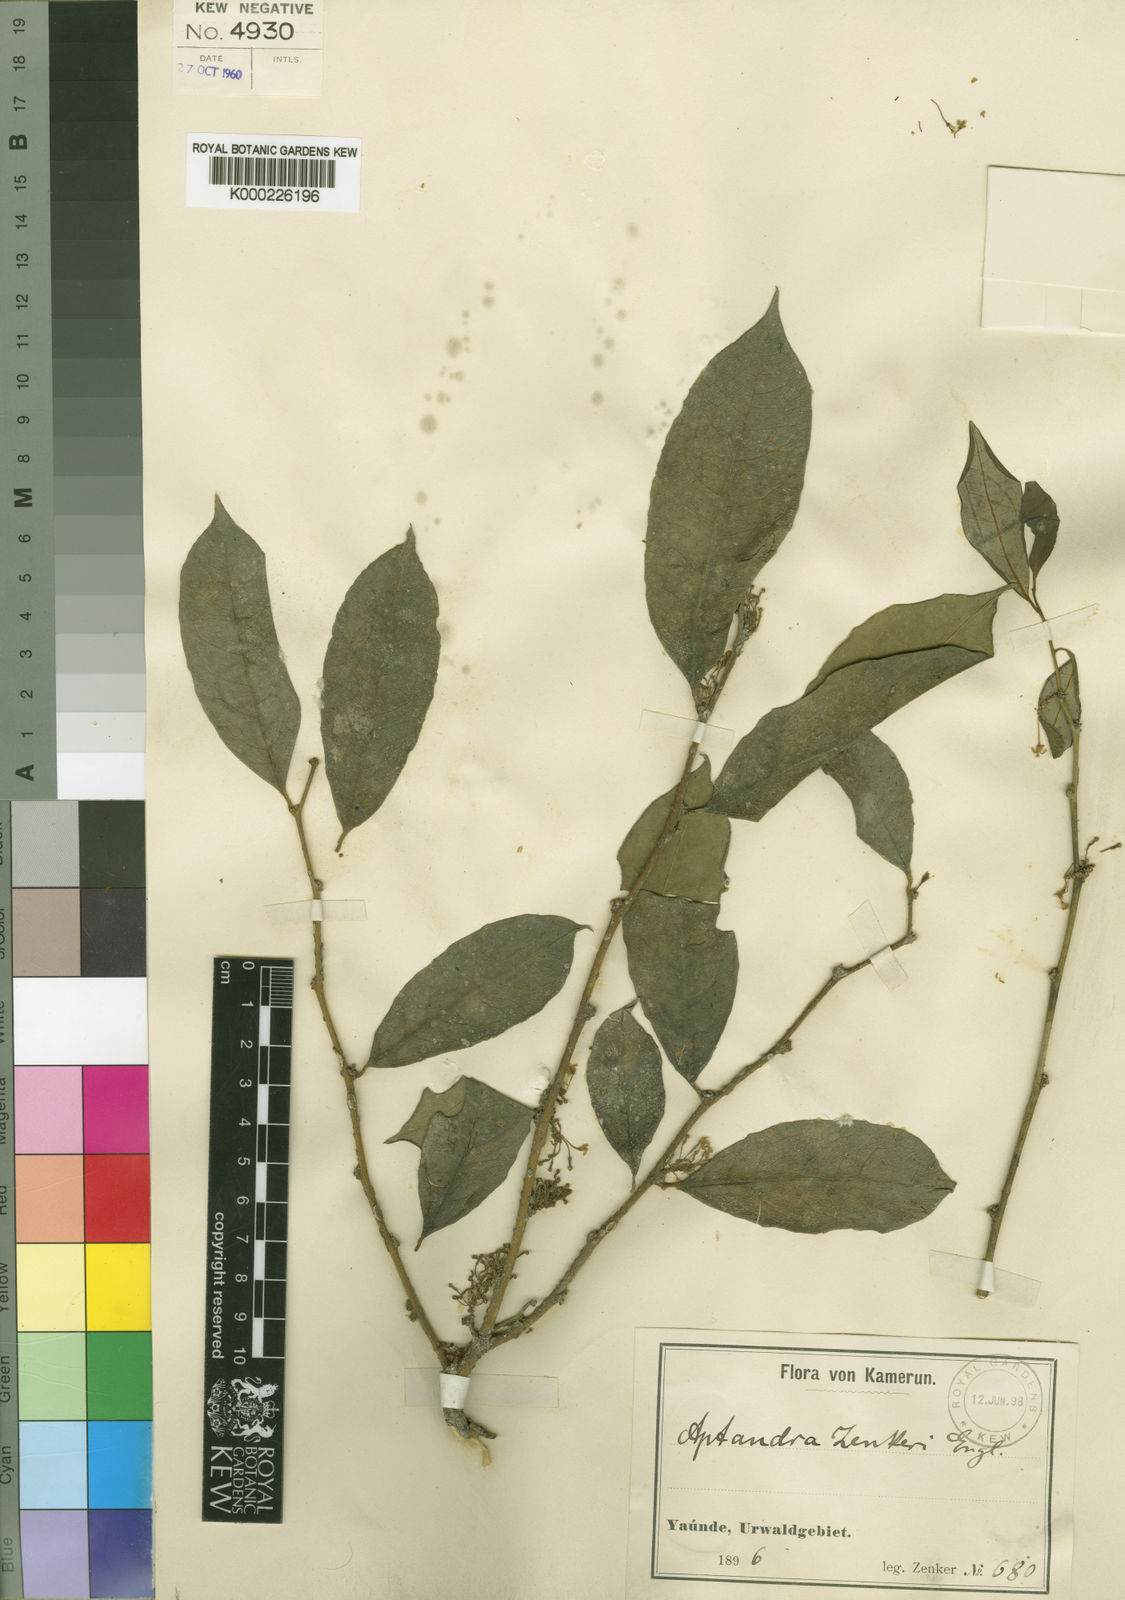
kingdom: Plantae
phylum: Tracheophyta
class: Magnoliopsida
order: Santalales
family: Aptandraceae
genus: Aptandra
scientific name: Aptandra zenkeri
